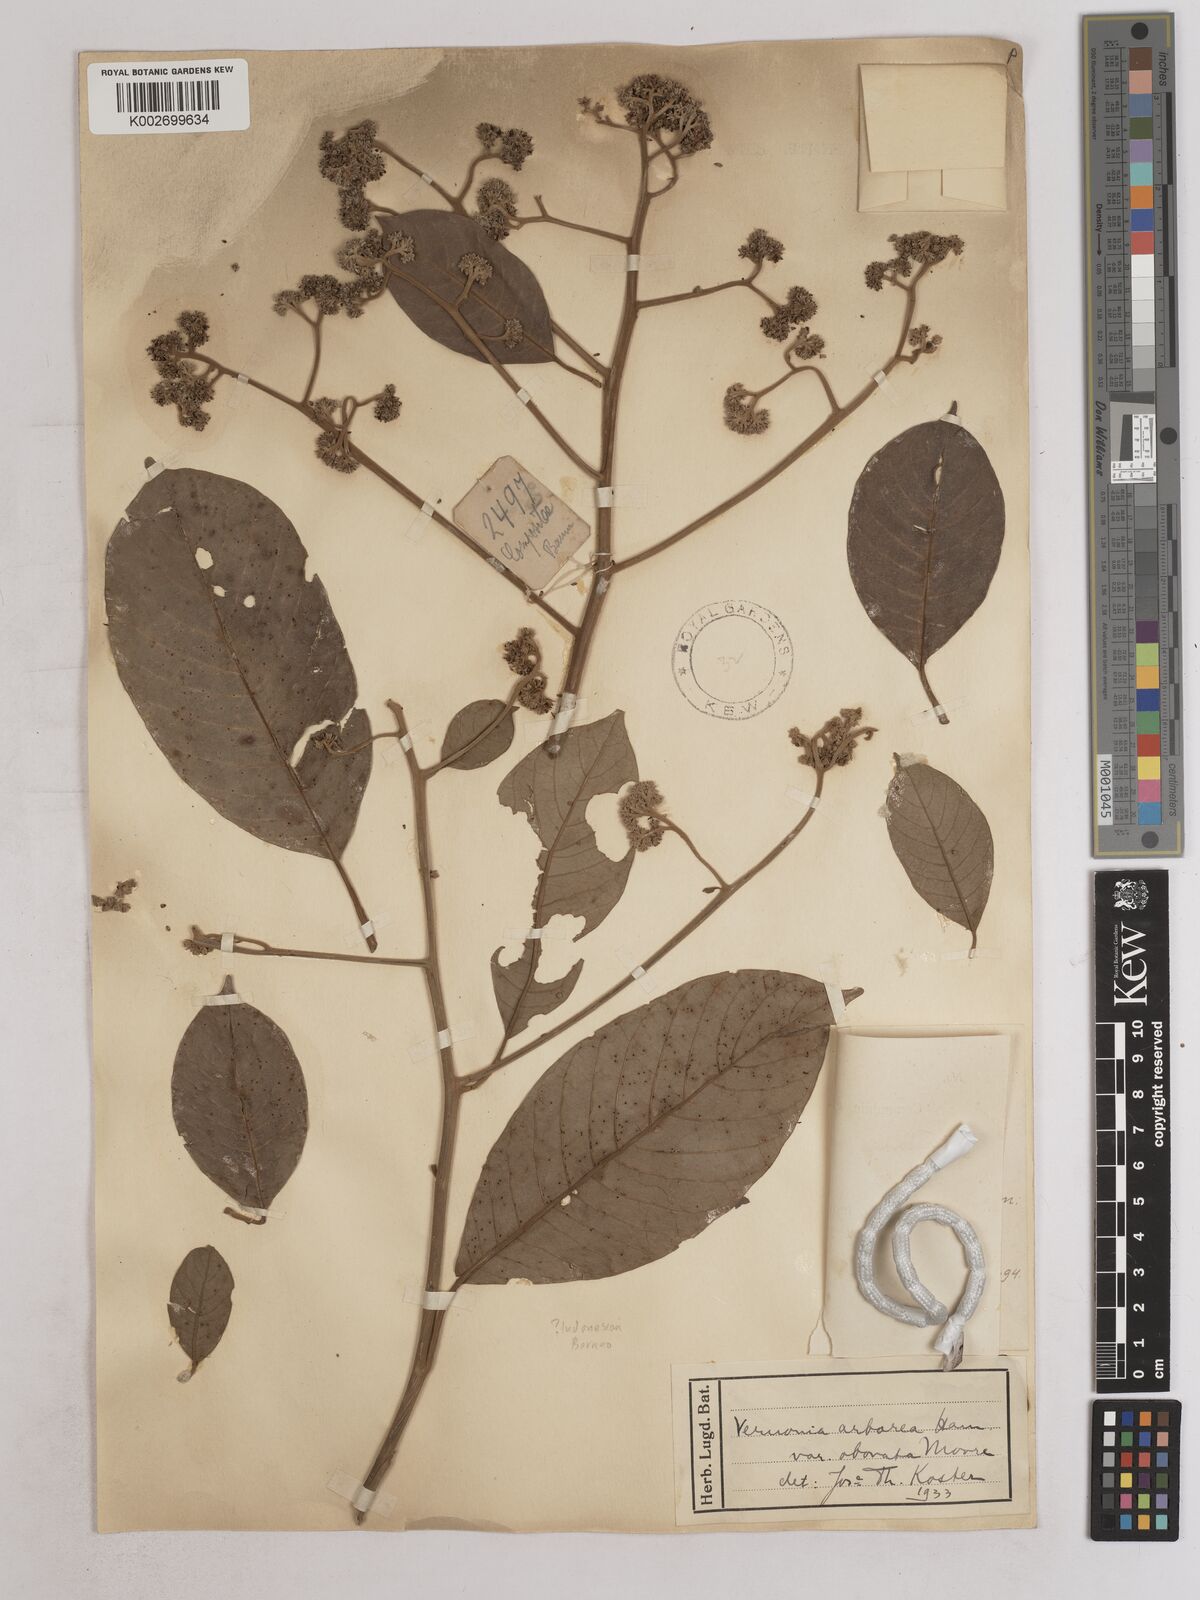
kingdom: Plantae
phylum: Tracheophyta
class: Magnoliopsida
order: Asterales
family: Asteraceae
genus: Strobocalyx
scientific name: Strobocalyx arborea
